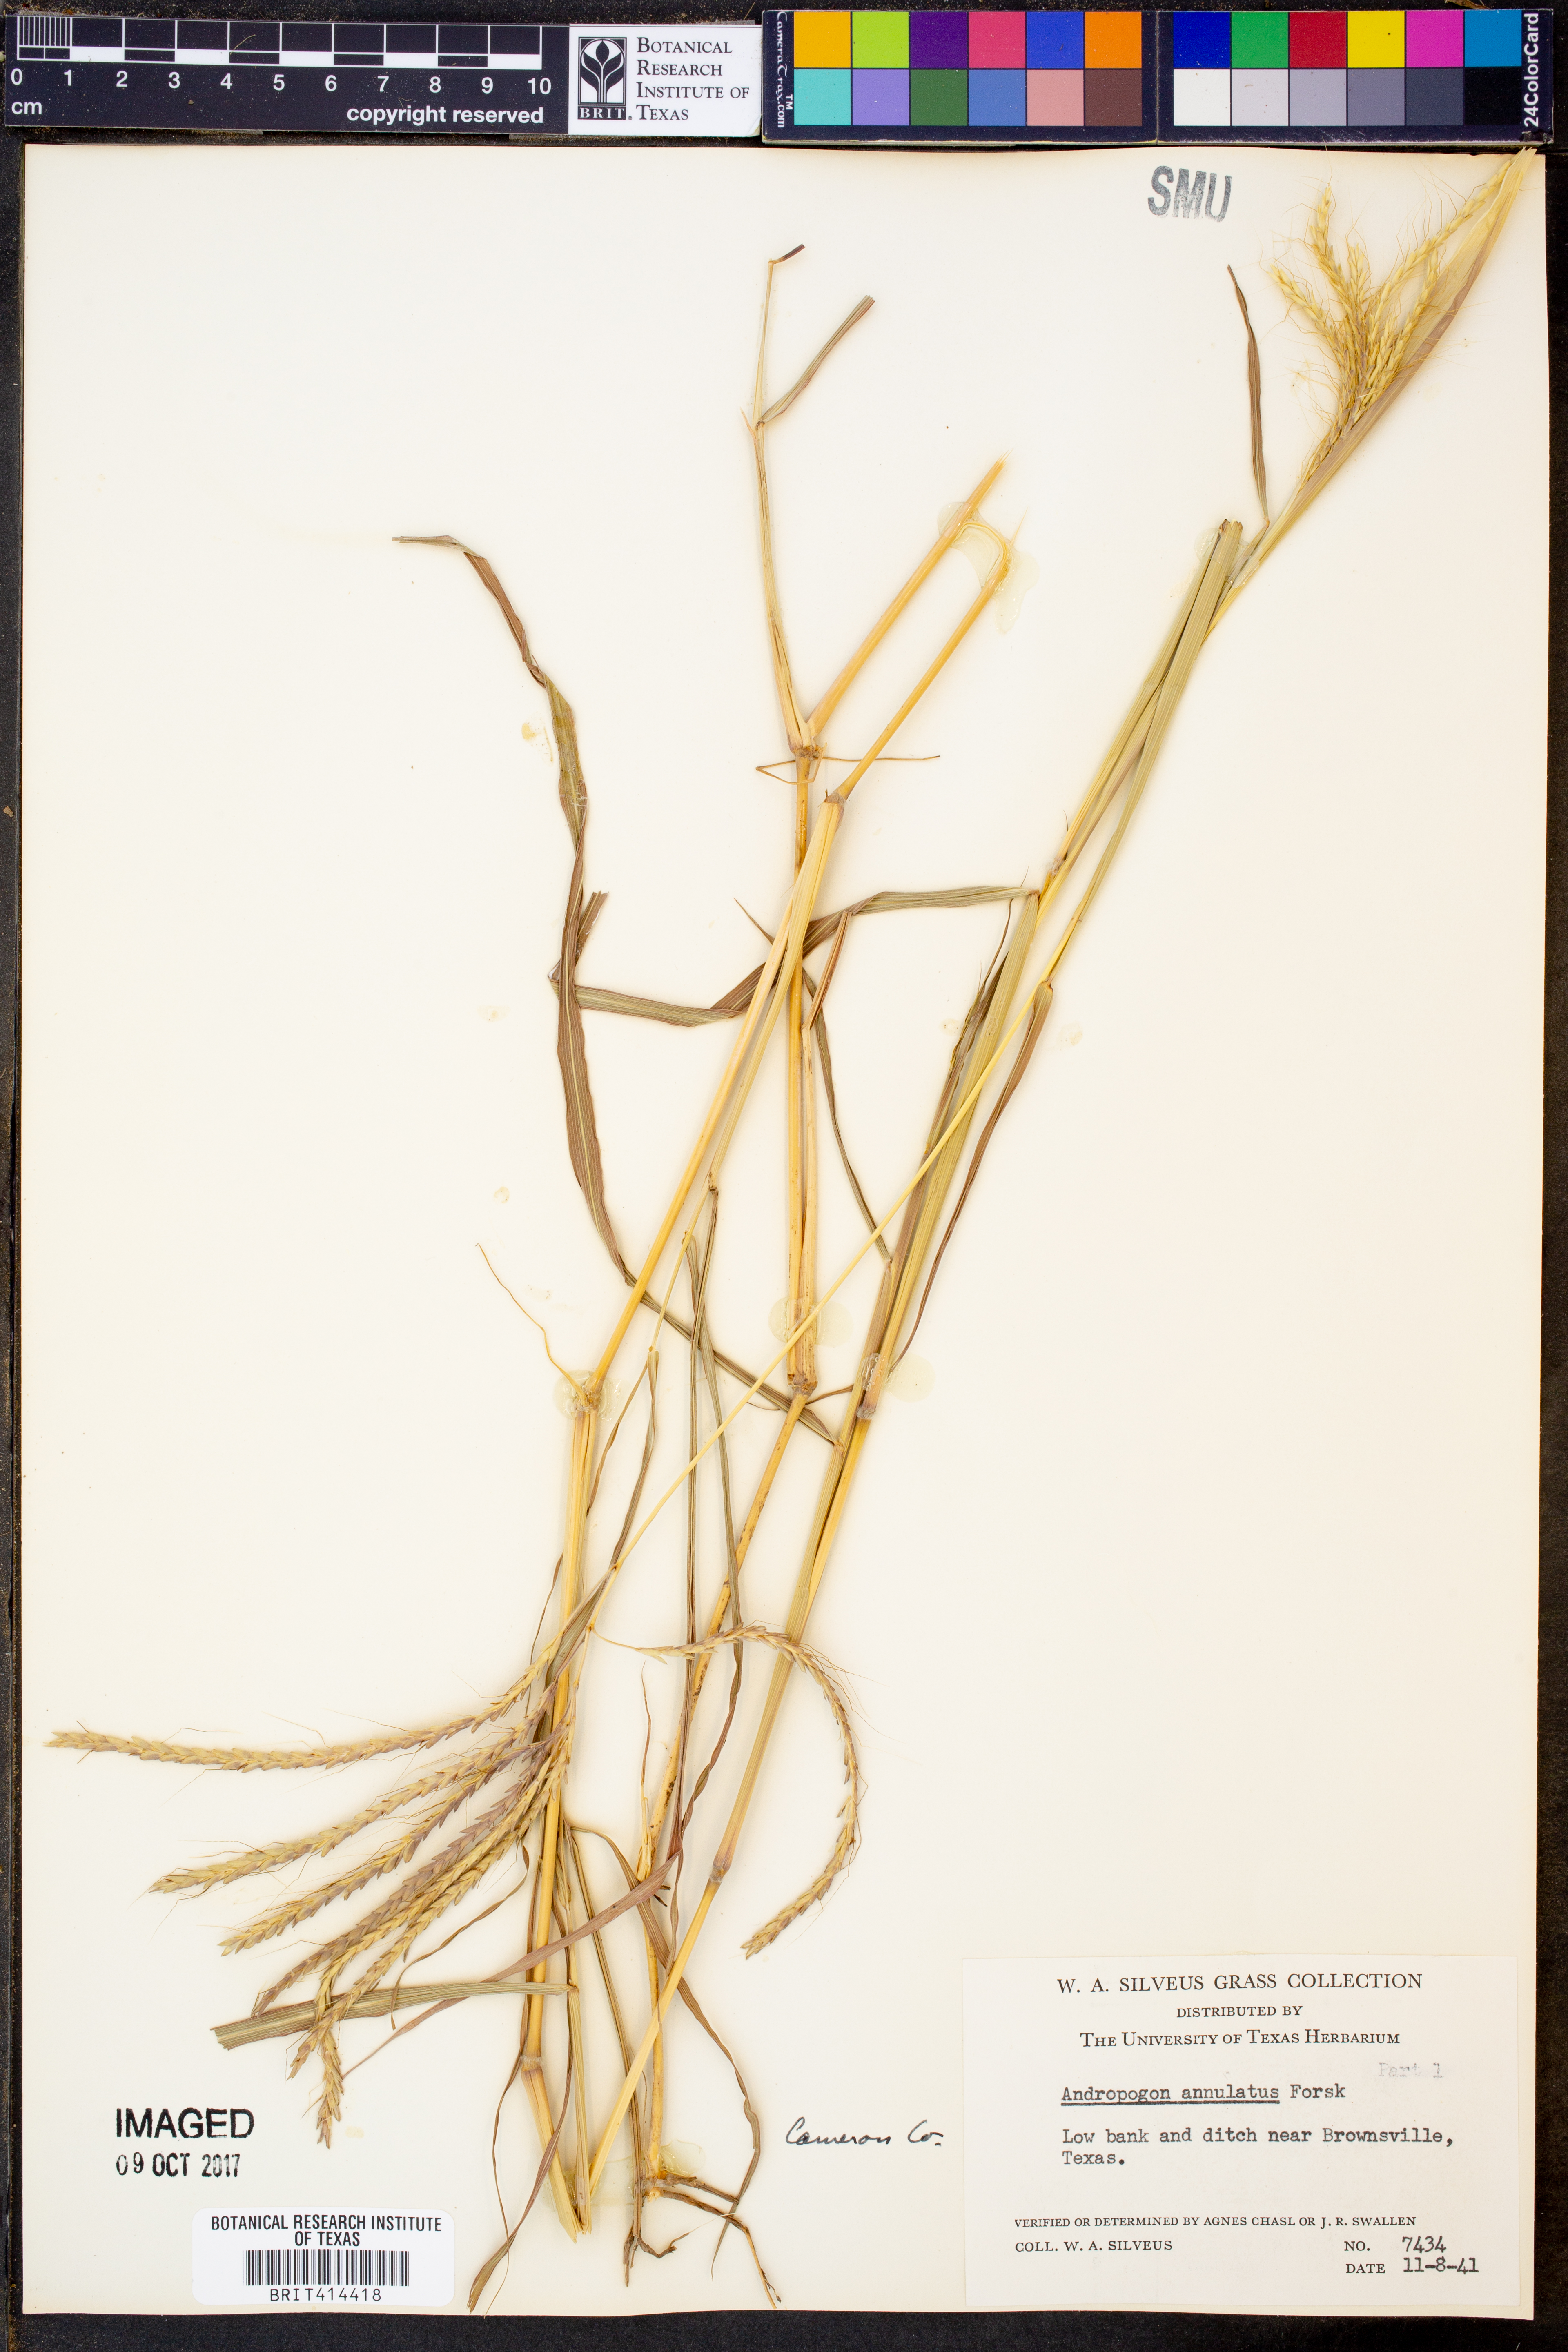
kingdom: Plantae
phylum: Tracheophyta
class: Liliopsida
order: Poales
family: Poaceae
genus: Dichanthium
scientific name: Dichanthium annulatum
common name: Kleberg's bluestem
